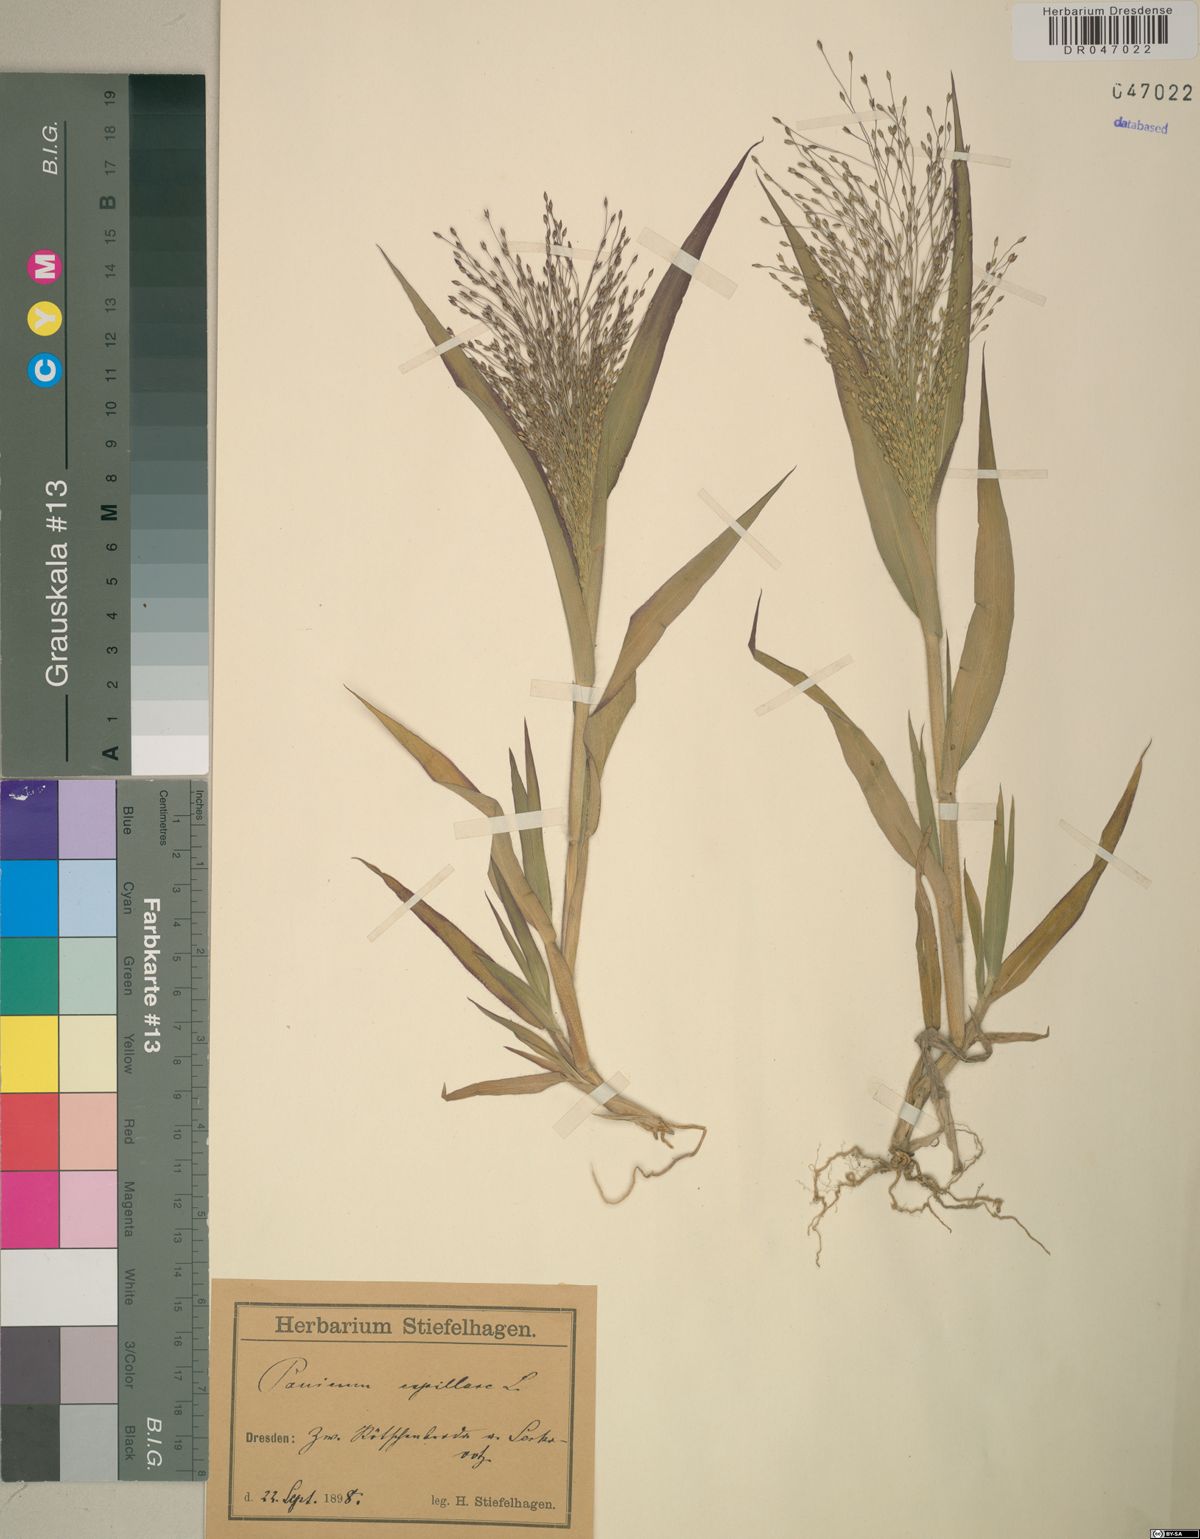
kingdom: Plantae
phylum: Tracheophyta
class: Liliopsida
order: Poales
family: Poaceae
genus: Panicum
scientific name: Panicum capillare
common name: Witch-grass
